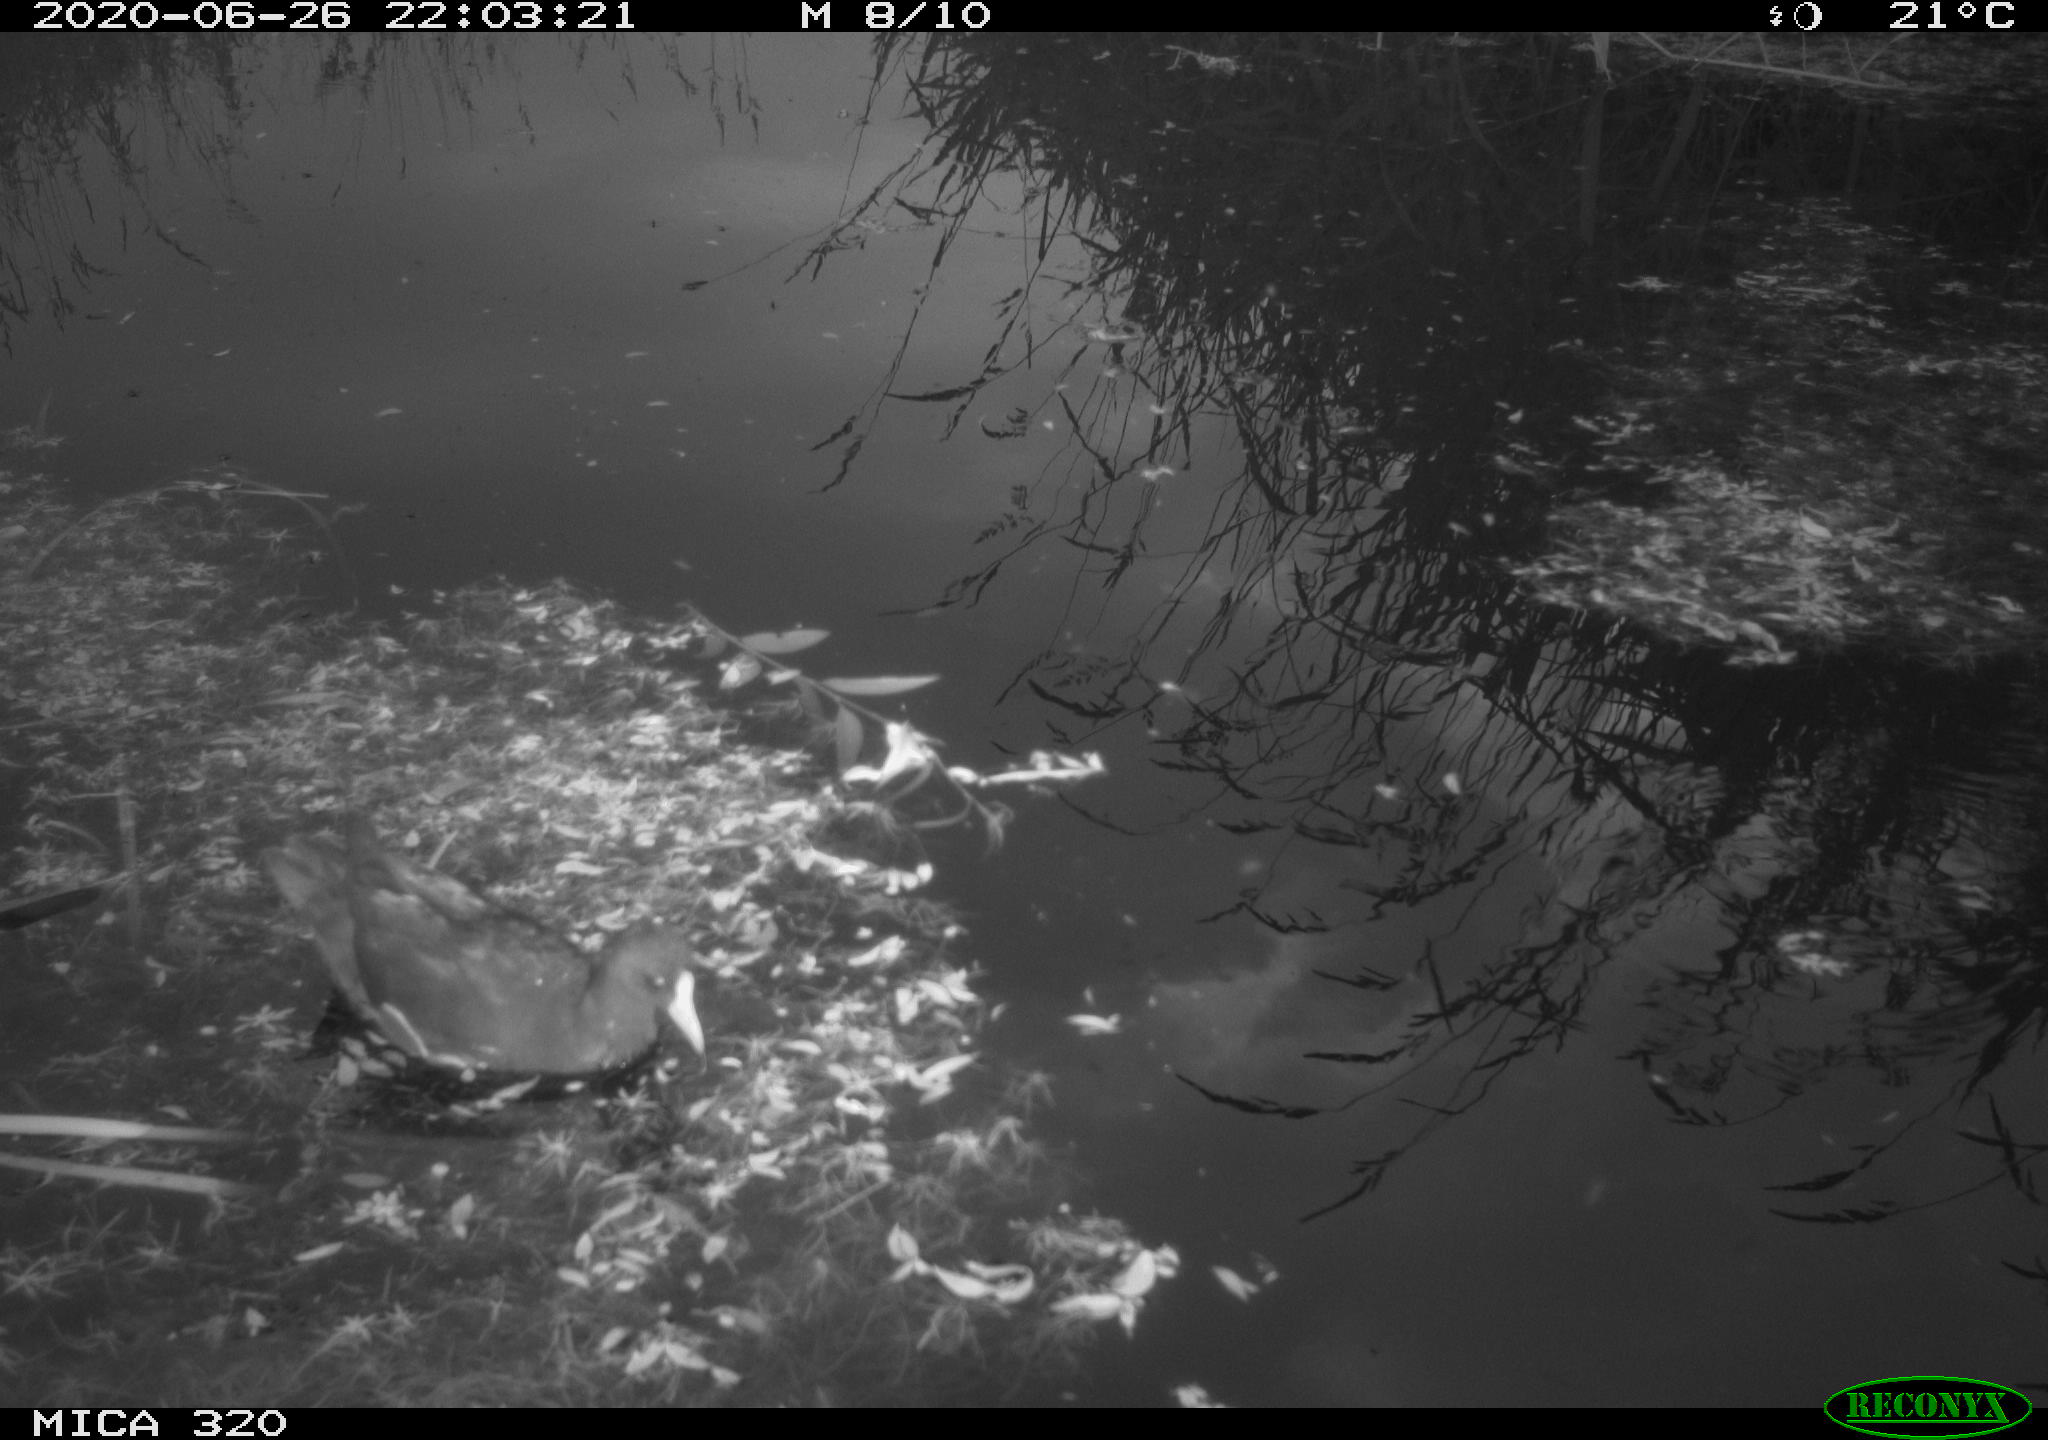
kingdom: Animalia
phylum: Chordata
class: Aves
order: Gruiformes
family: Rallidae
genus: Gallinula
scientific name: Gallinula chloropus
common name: Common moorhen
